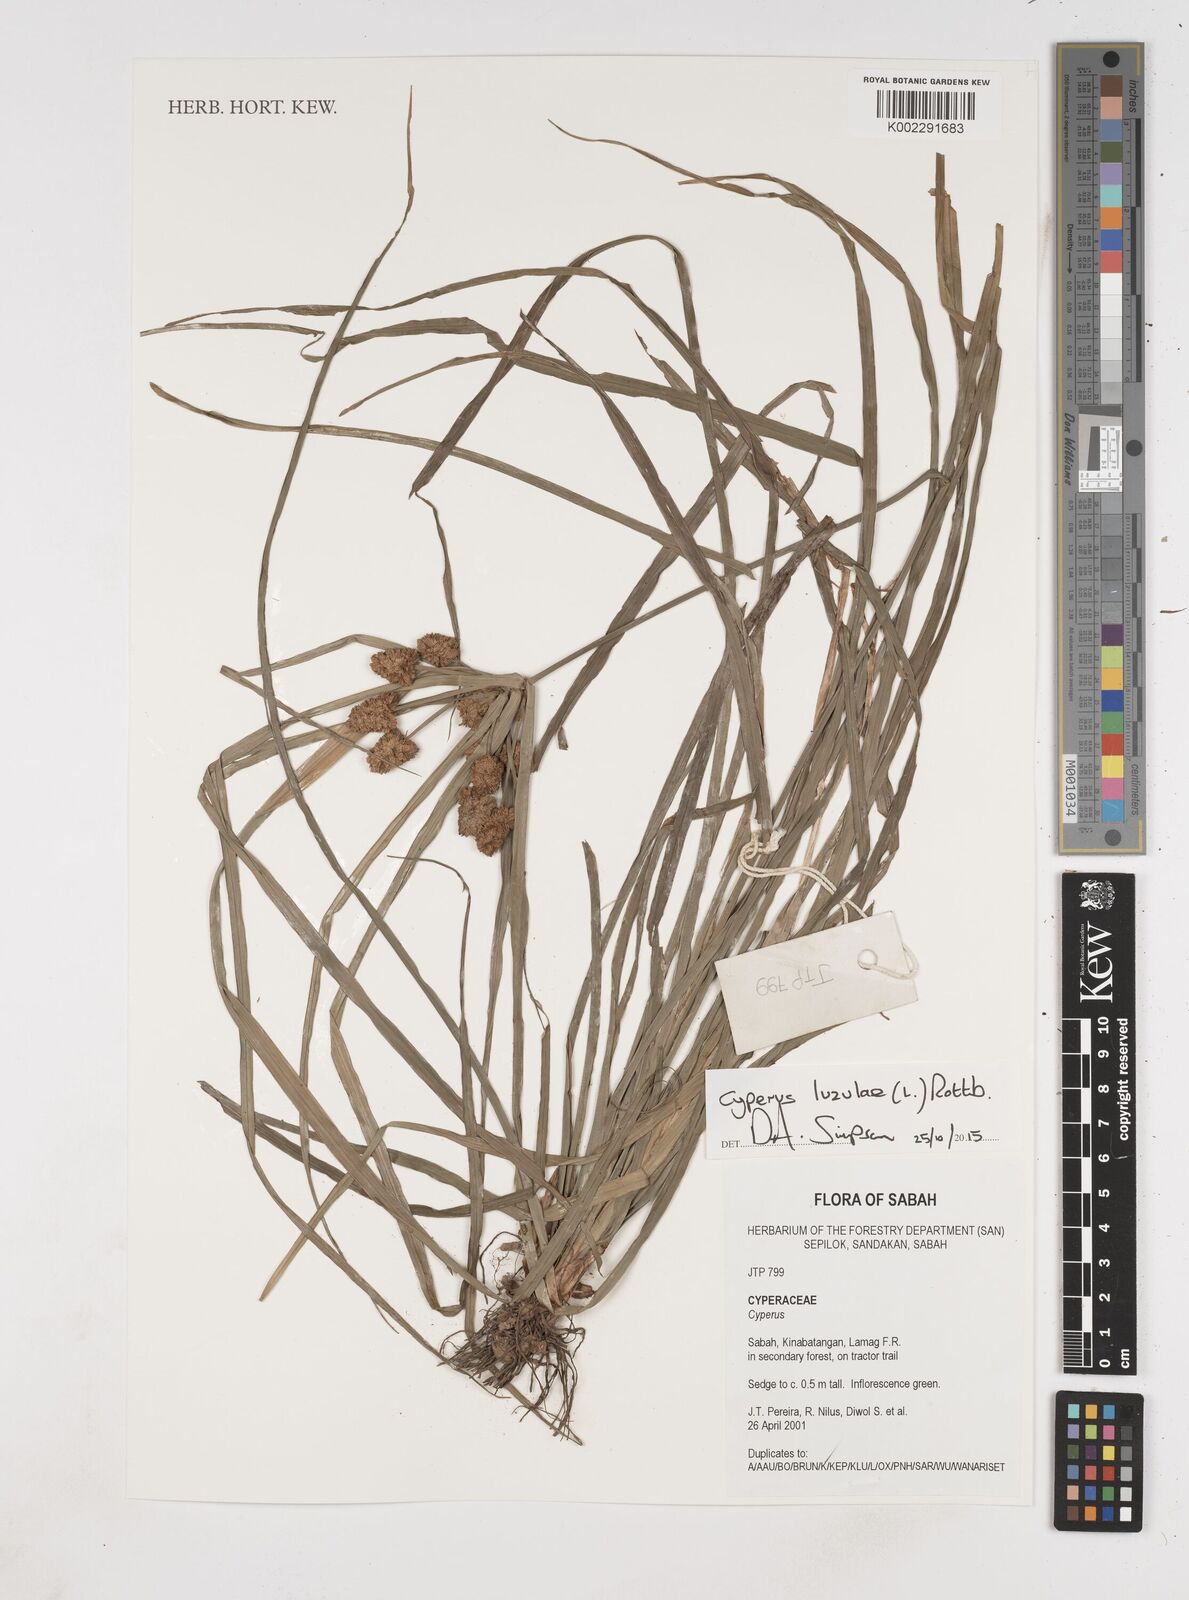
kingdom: Plantae
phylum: Tracheophyta
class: Liliopsida
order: Poales
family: Cyperaceae
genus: Cyperus
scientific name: Cyperus luzulae
